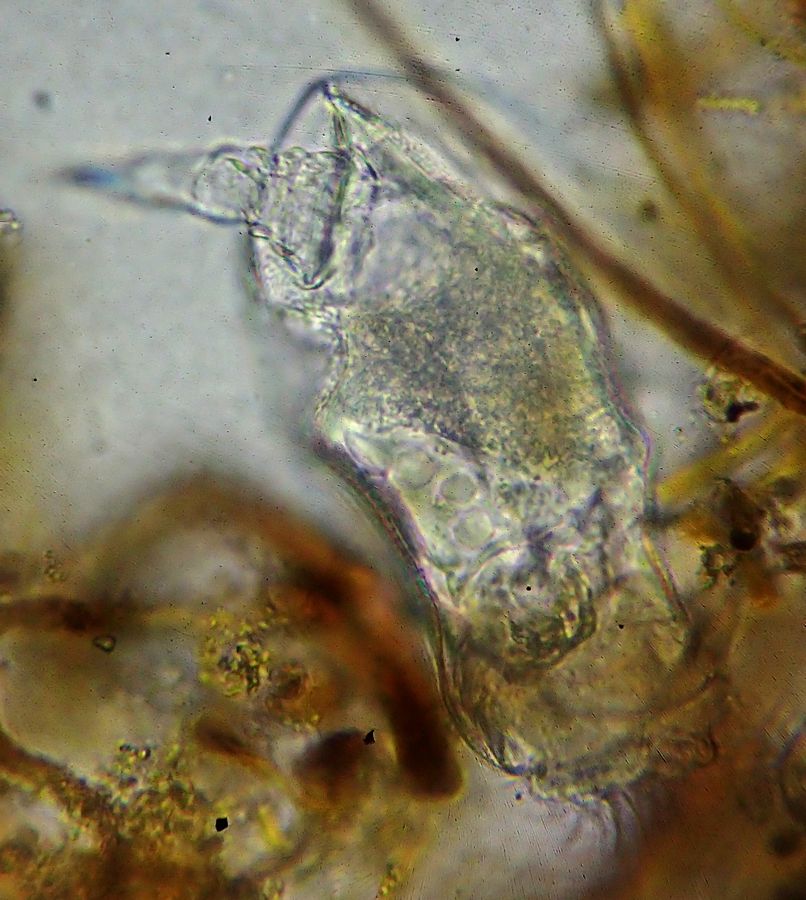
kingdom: Animalia
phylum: Rotifera
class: Eurotatoria
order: Ploima
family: Mytilinidae
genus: Lophocharis
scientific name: Lophocharis oxysternon
